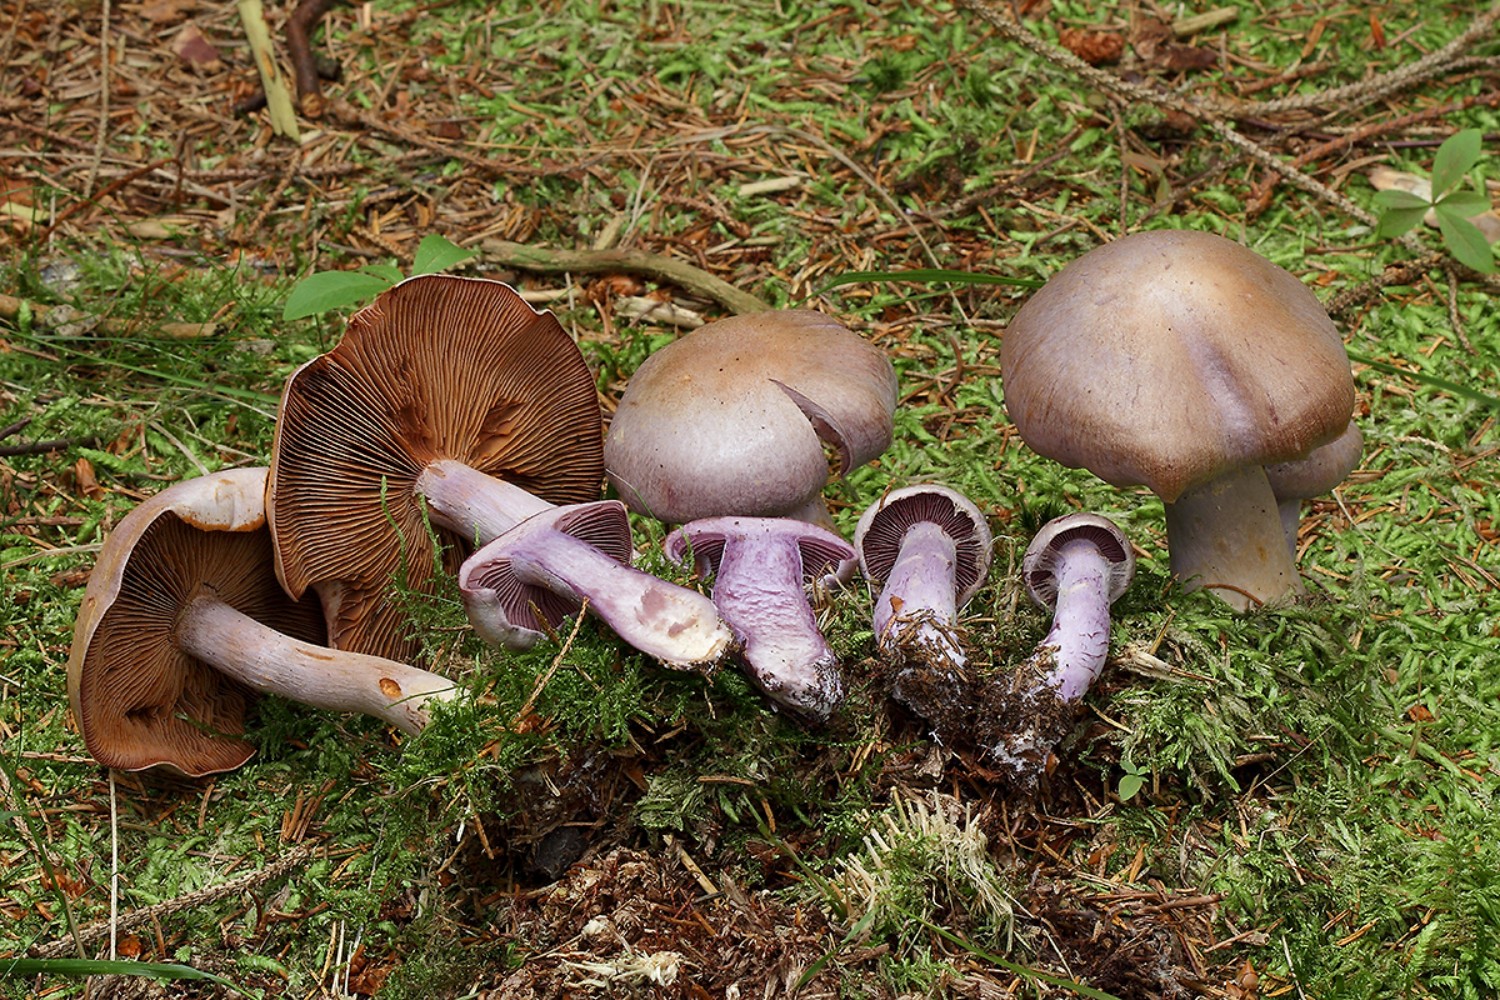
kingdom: Fungi
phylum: Basidiomycota
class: Agaricomycetes
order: Agaricales
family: Cortinariaceae
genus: Cortinarius
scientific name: Cortinarius camphoratus
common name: stinkende slørhat
